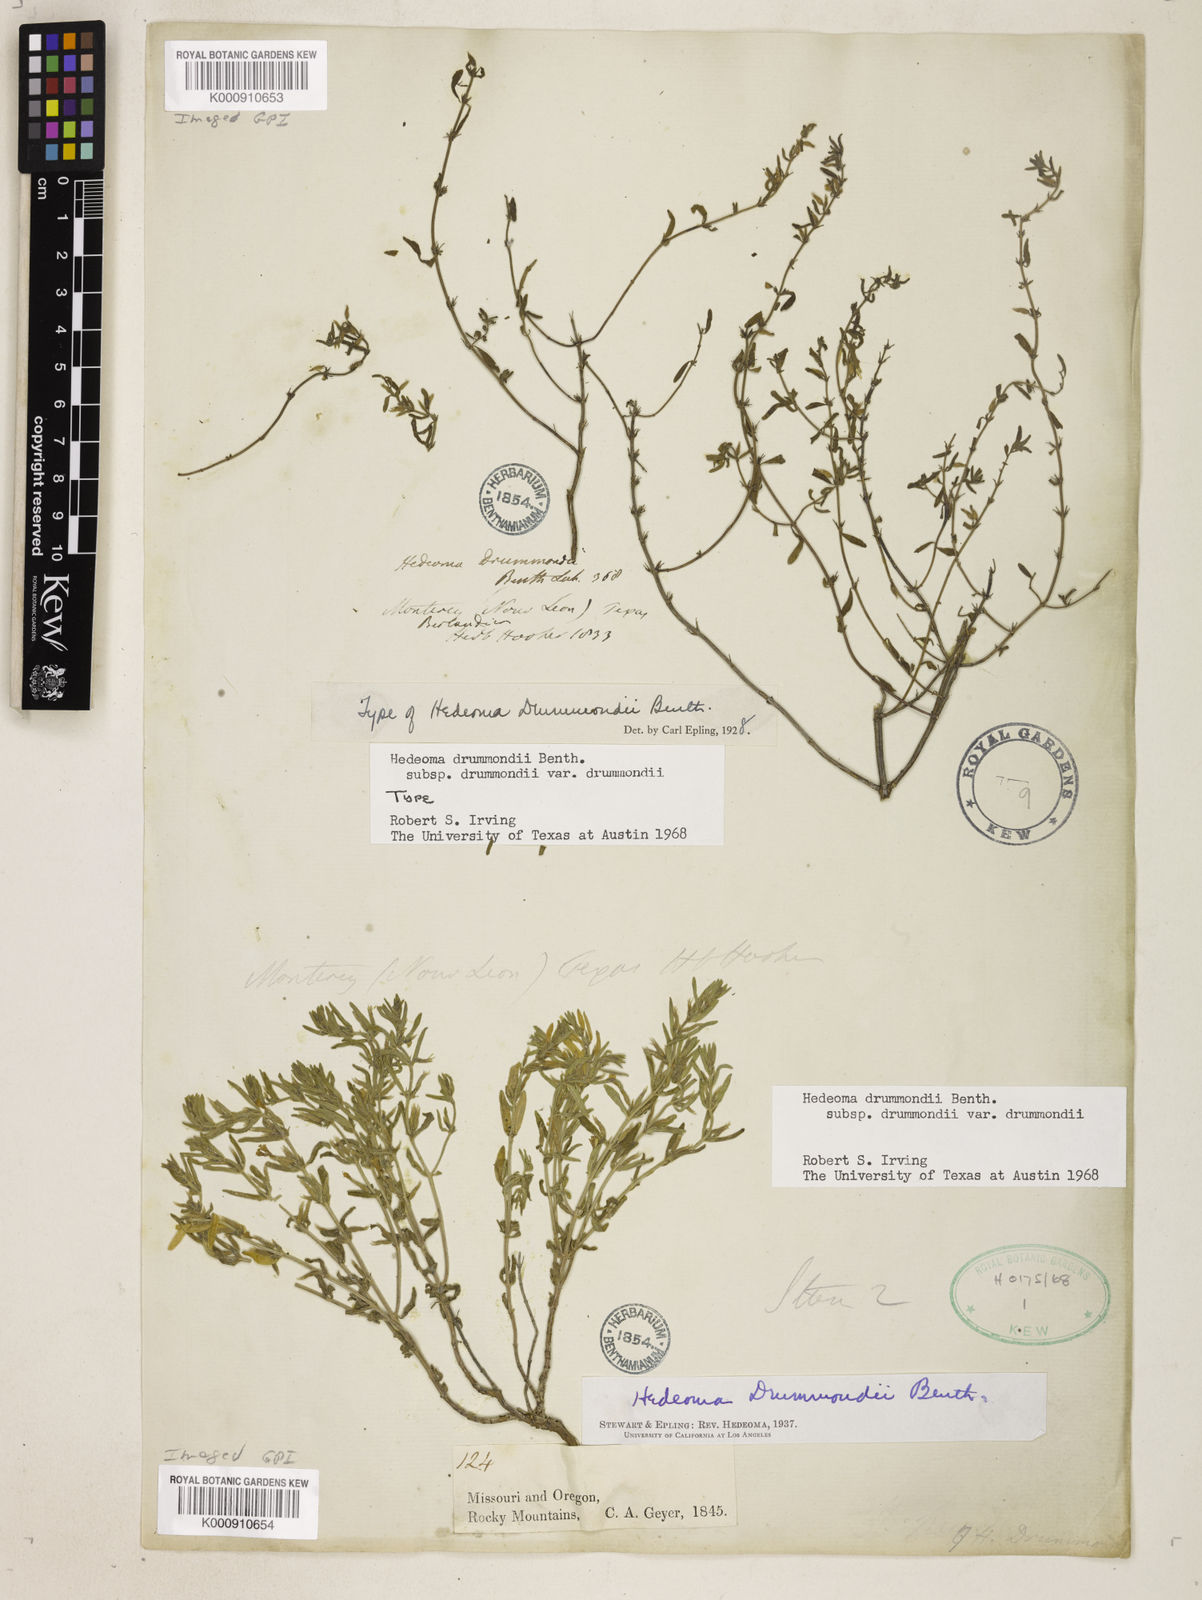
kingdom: Plantae
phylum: Tracheophyta
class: Magnoliopsida
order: Lamiales
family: Lamiaceae
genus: Hedeoma
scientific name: Hedeoma drummondii
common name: New mexico pennyroyal
